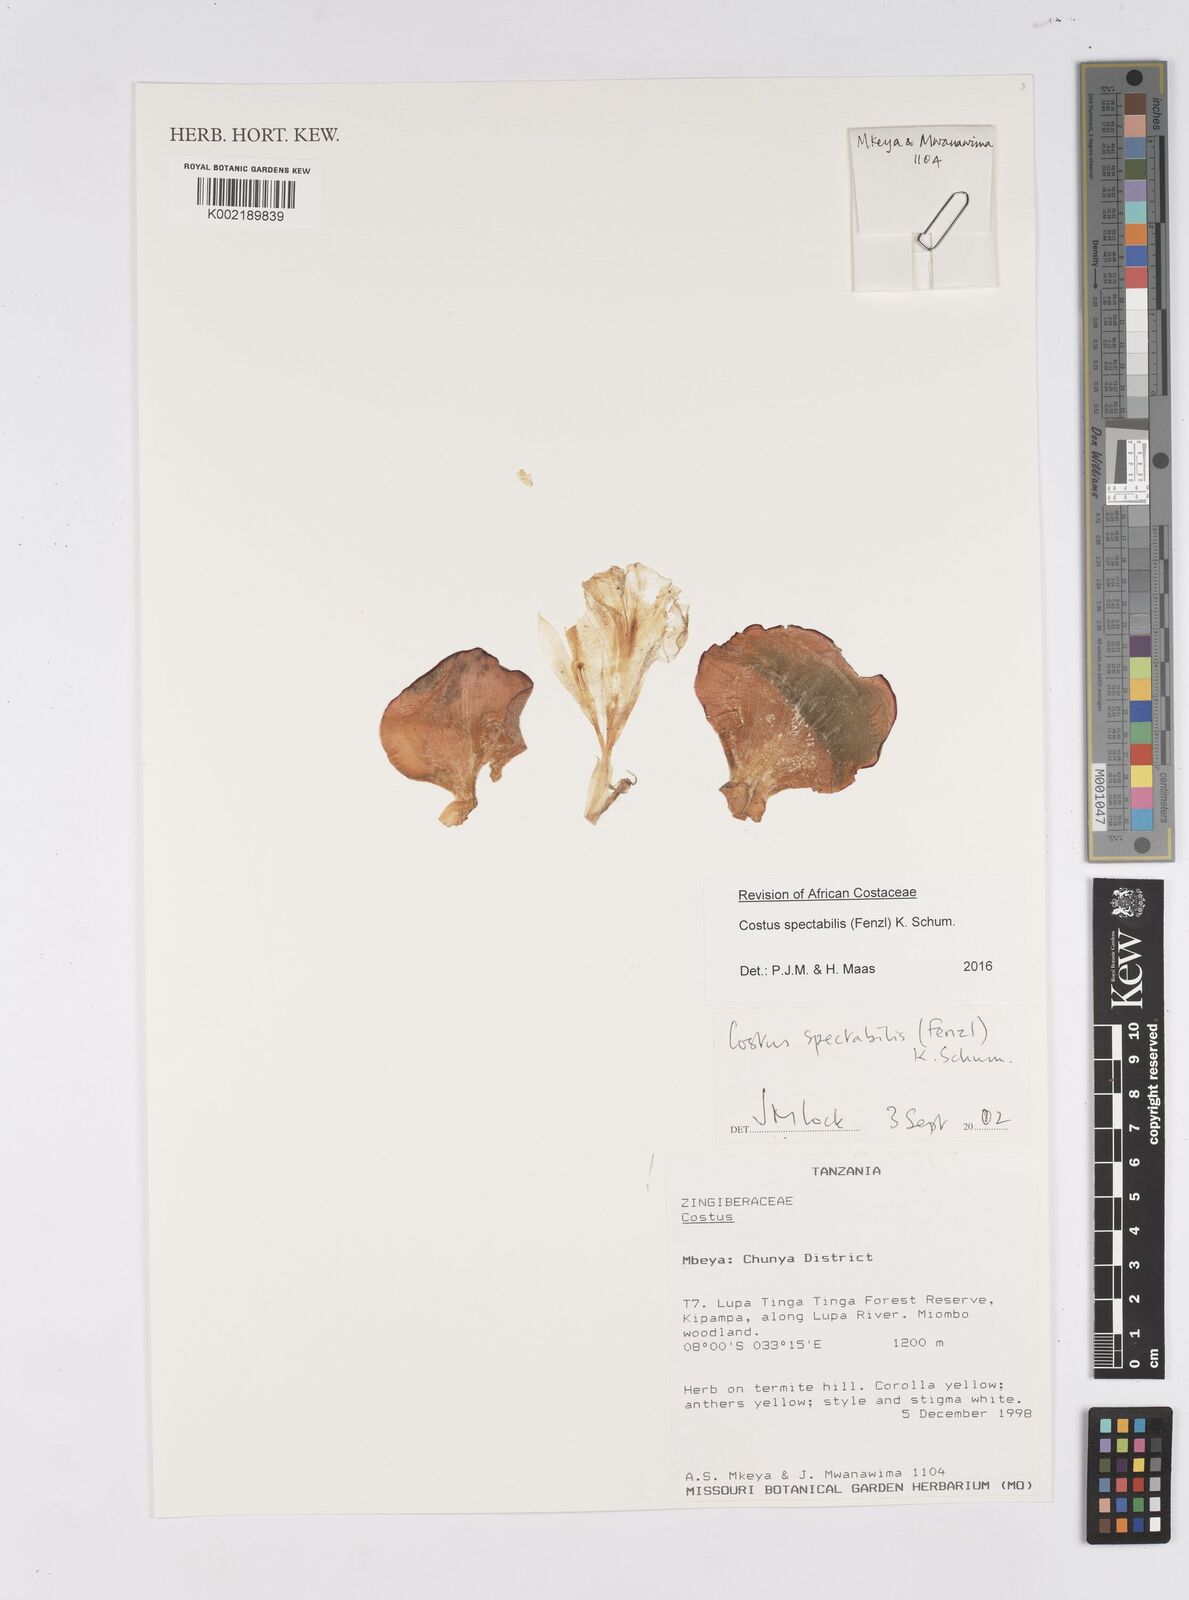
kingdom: Plantae
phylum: Tracheophyta
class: Liliopsida
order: Zingiberales
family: Costaceae
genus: Costus
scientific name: Costus spectabilis
